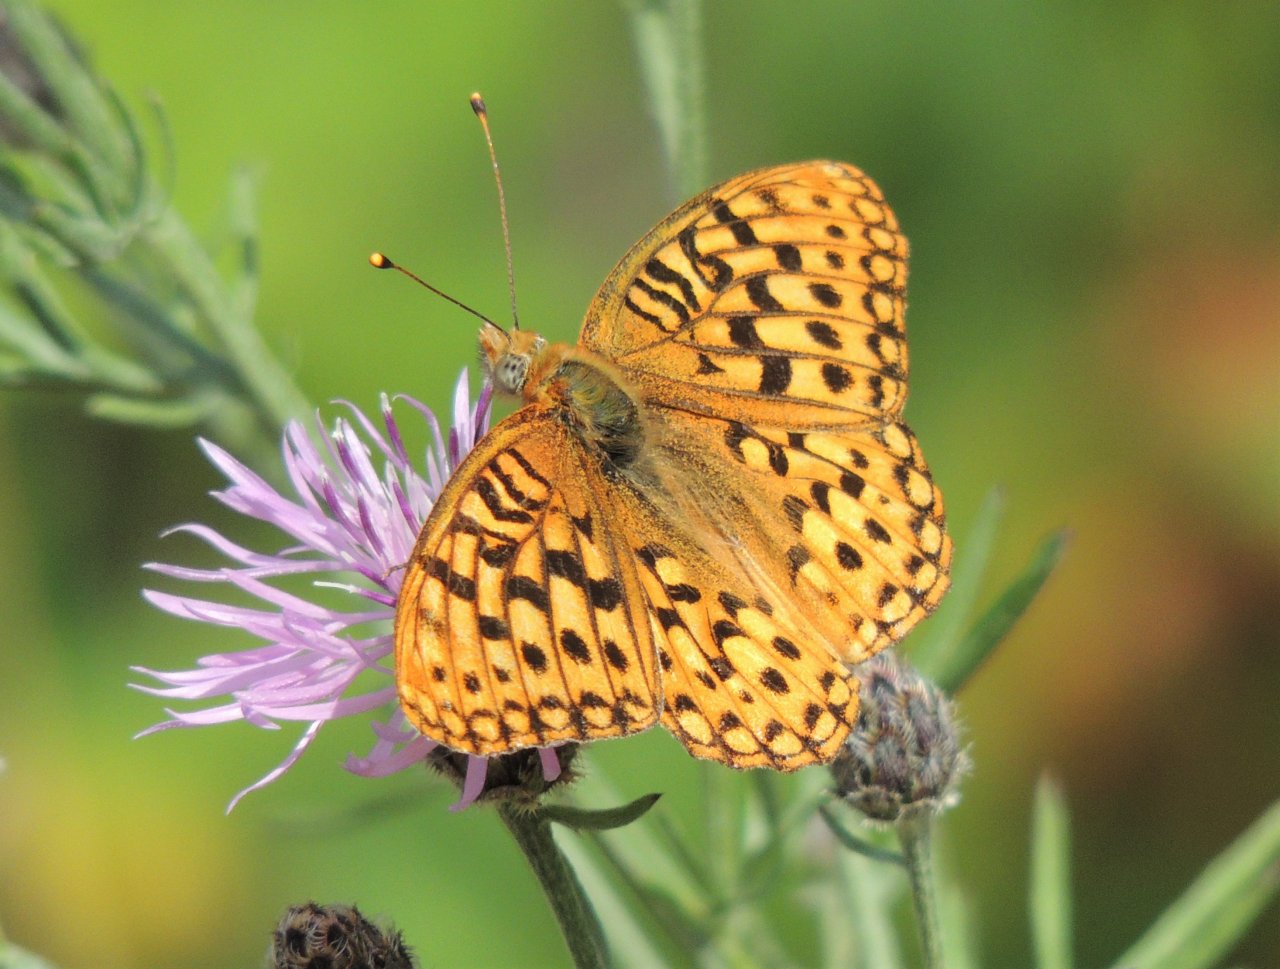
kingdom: Animalia
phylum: Arthropoda
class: Insecta
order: Lepidoptera
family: Nymphalidae
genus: Speyeria
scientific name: Speyeria zerene
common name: Zerene Fritillary
